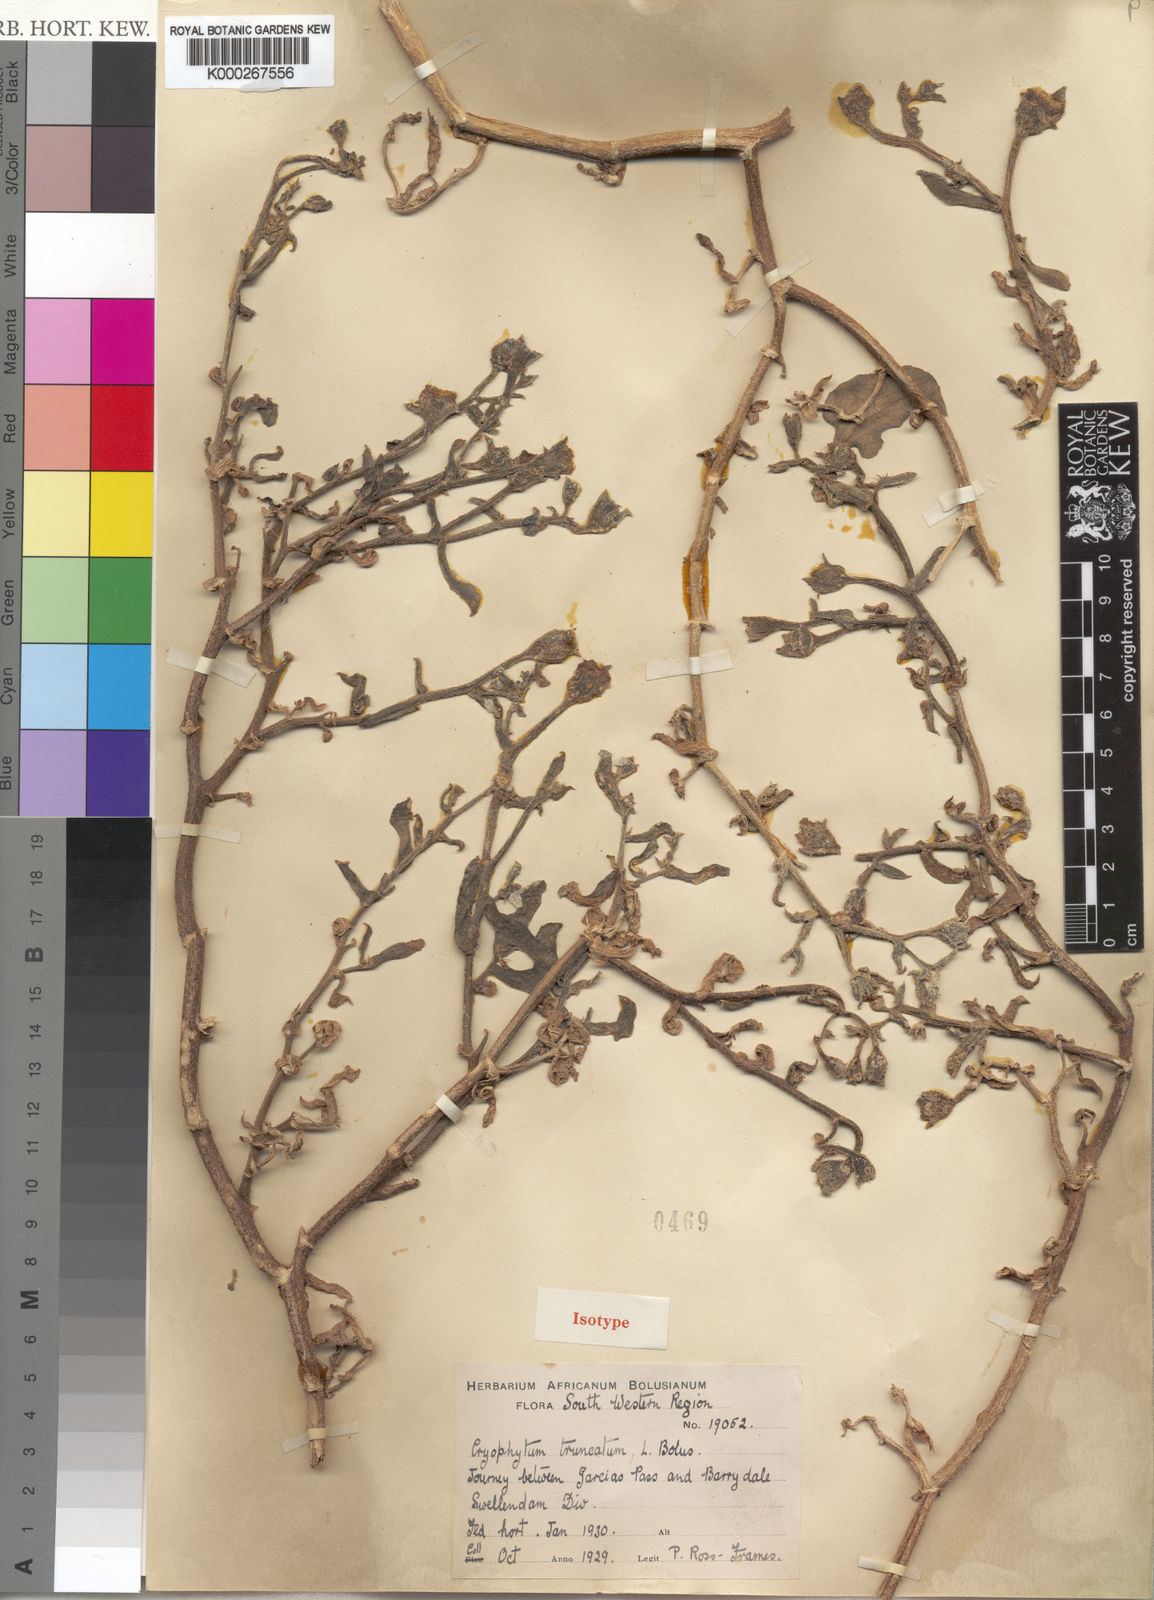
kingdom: Plantae
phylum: Tracheophyta
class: Magnoliopsida
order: Caryophyllales
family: Aizoaceae
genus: Mesembryanthemum
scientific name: Mesembryanthemum
